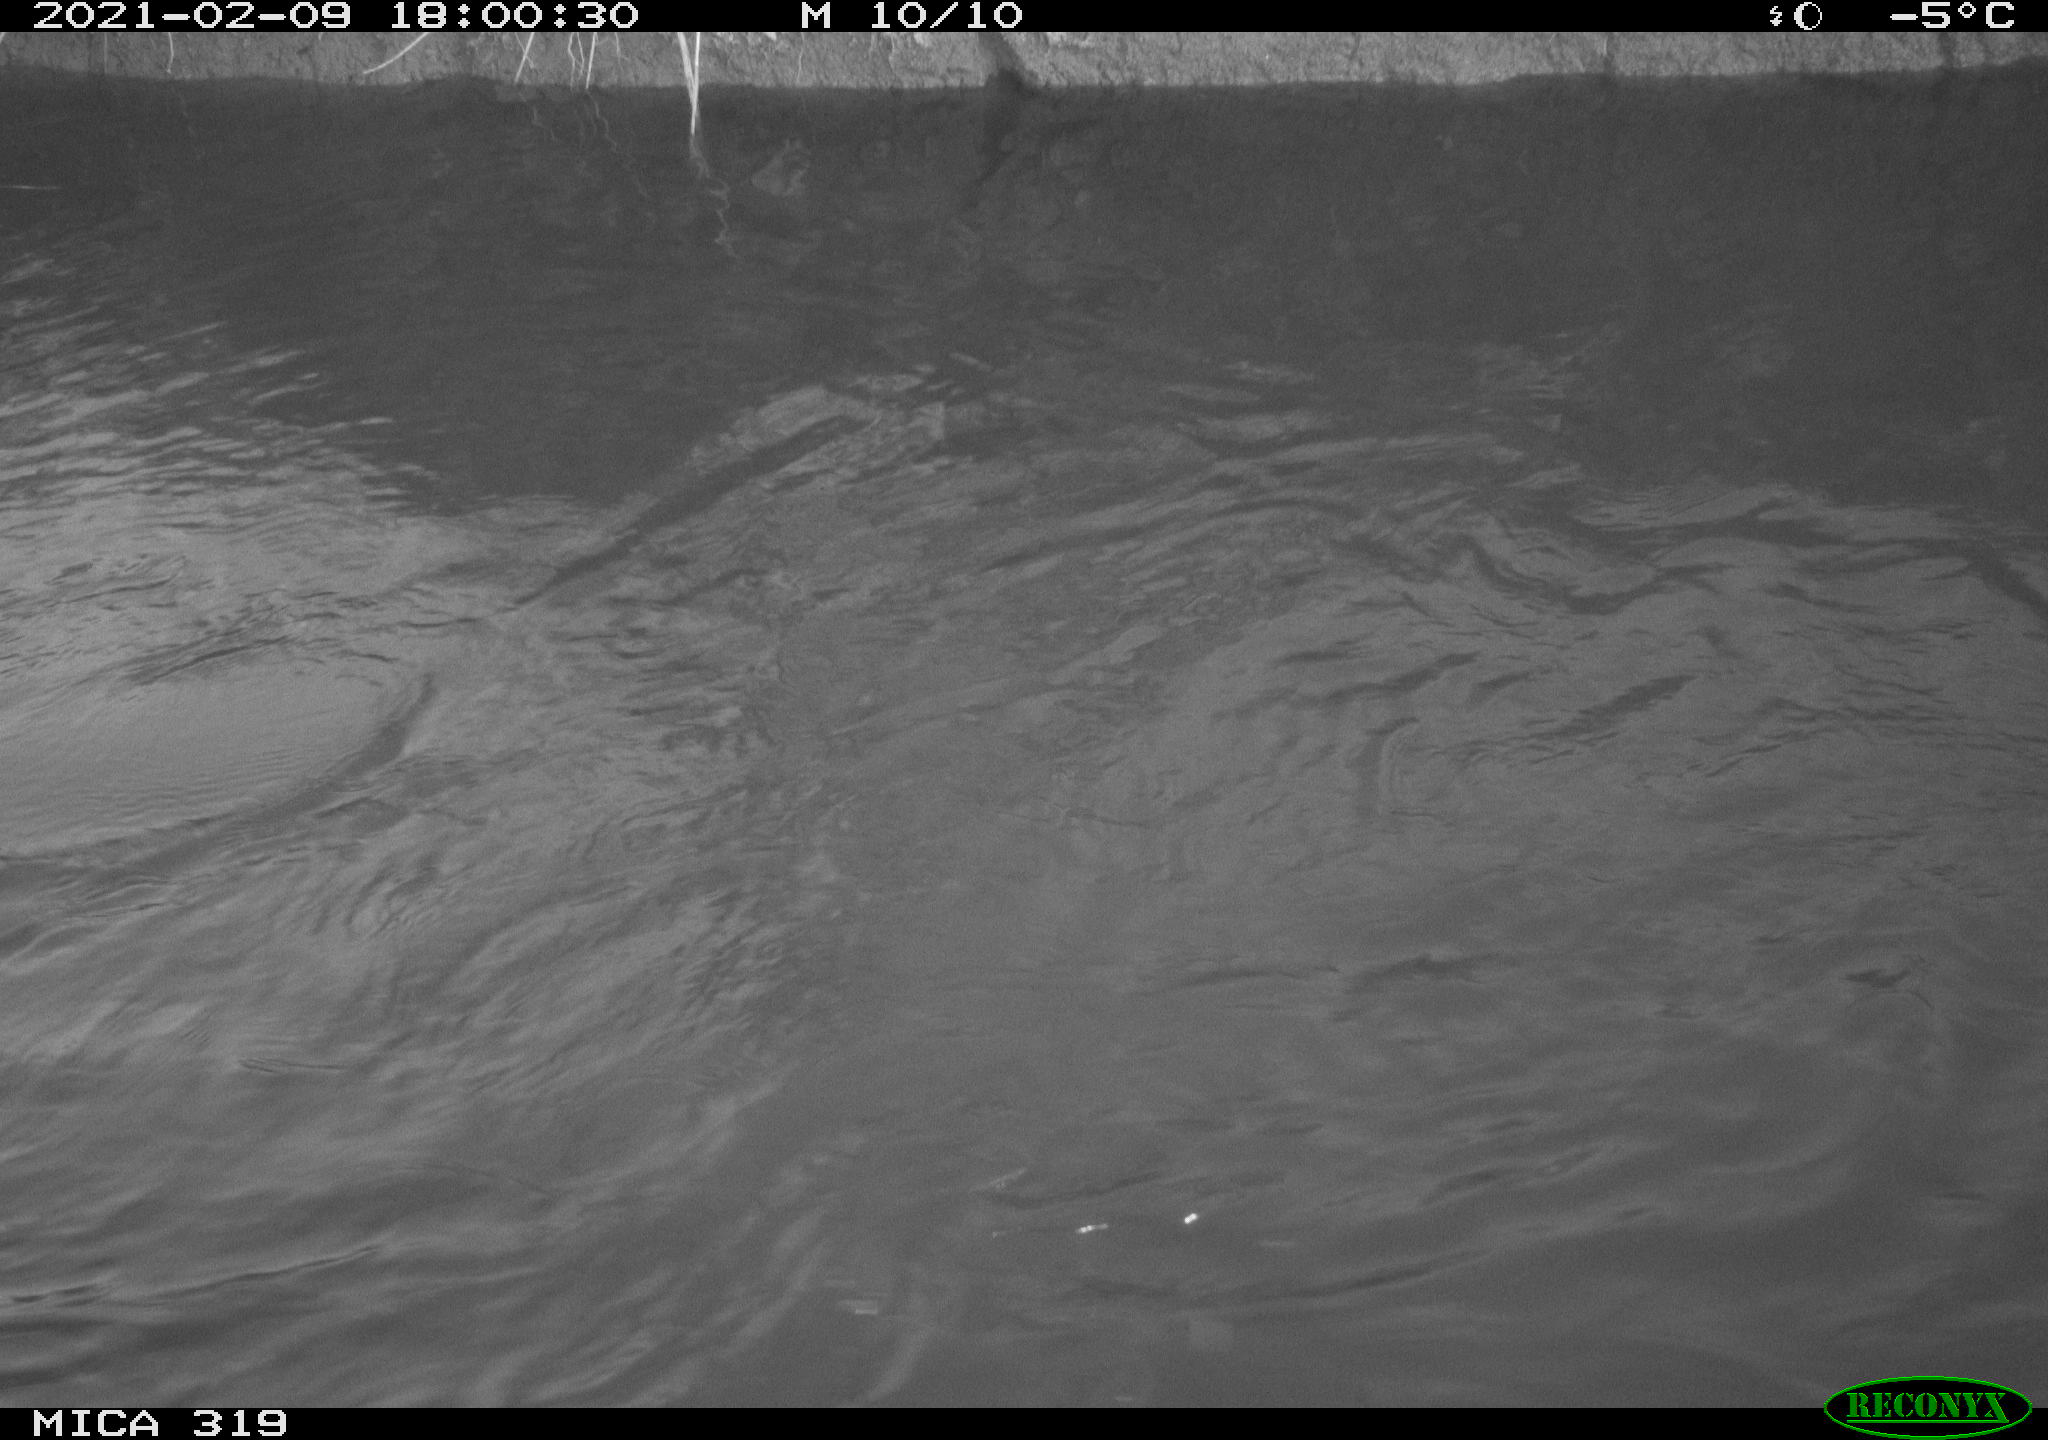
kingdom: Animalia
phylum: Chordata
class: Aves
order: Anseriformes
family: Anatidae
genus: Anas
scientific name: Anas platyrhynchos
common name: Mallard
